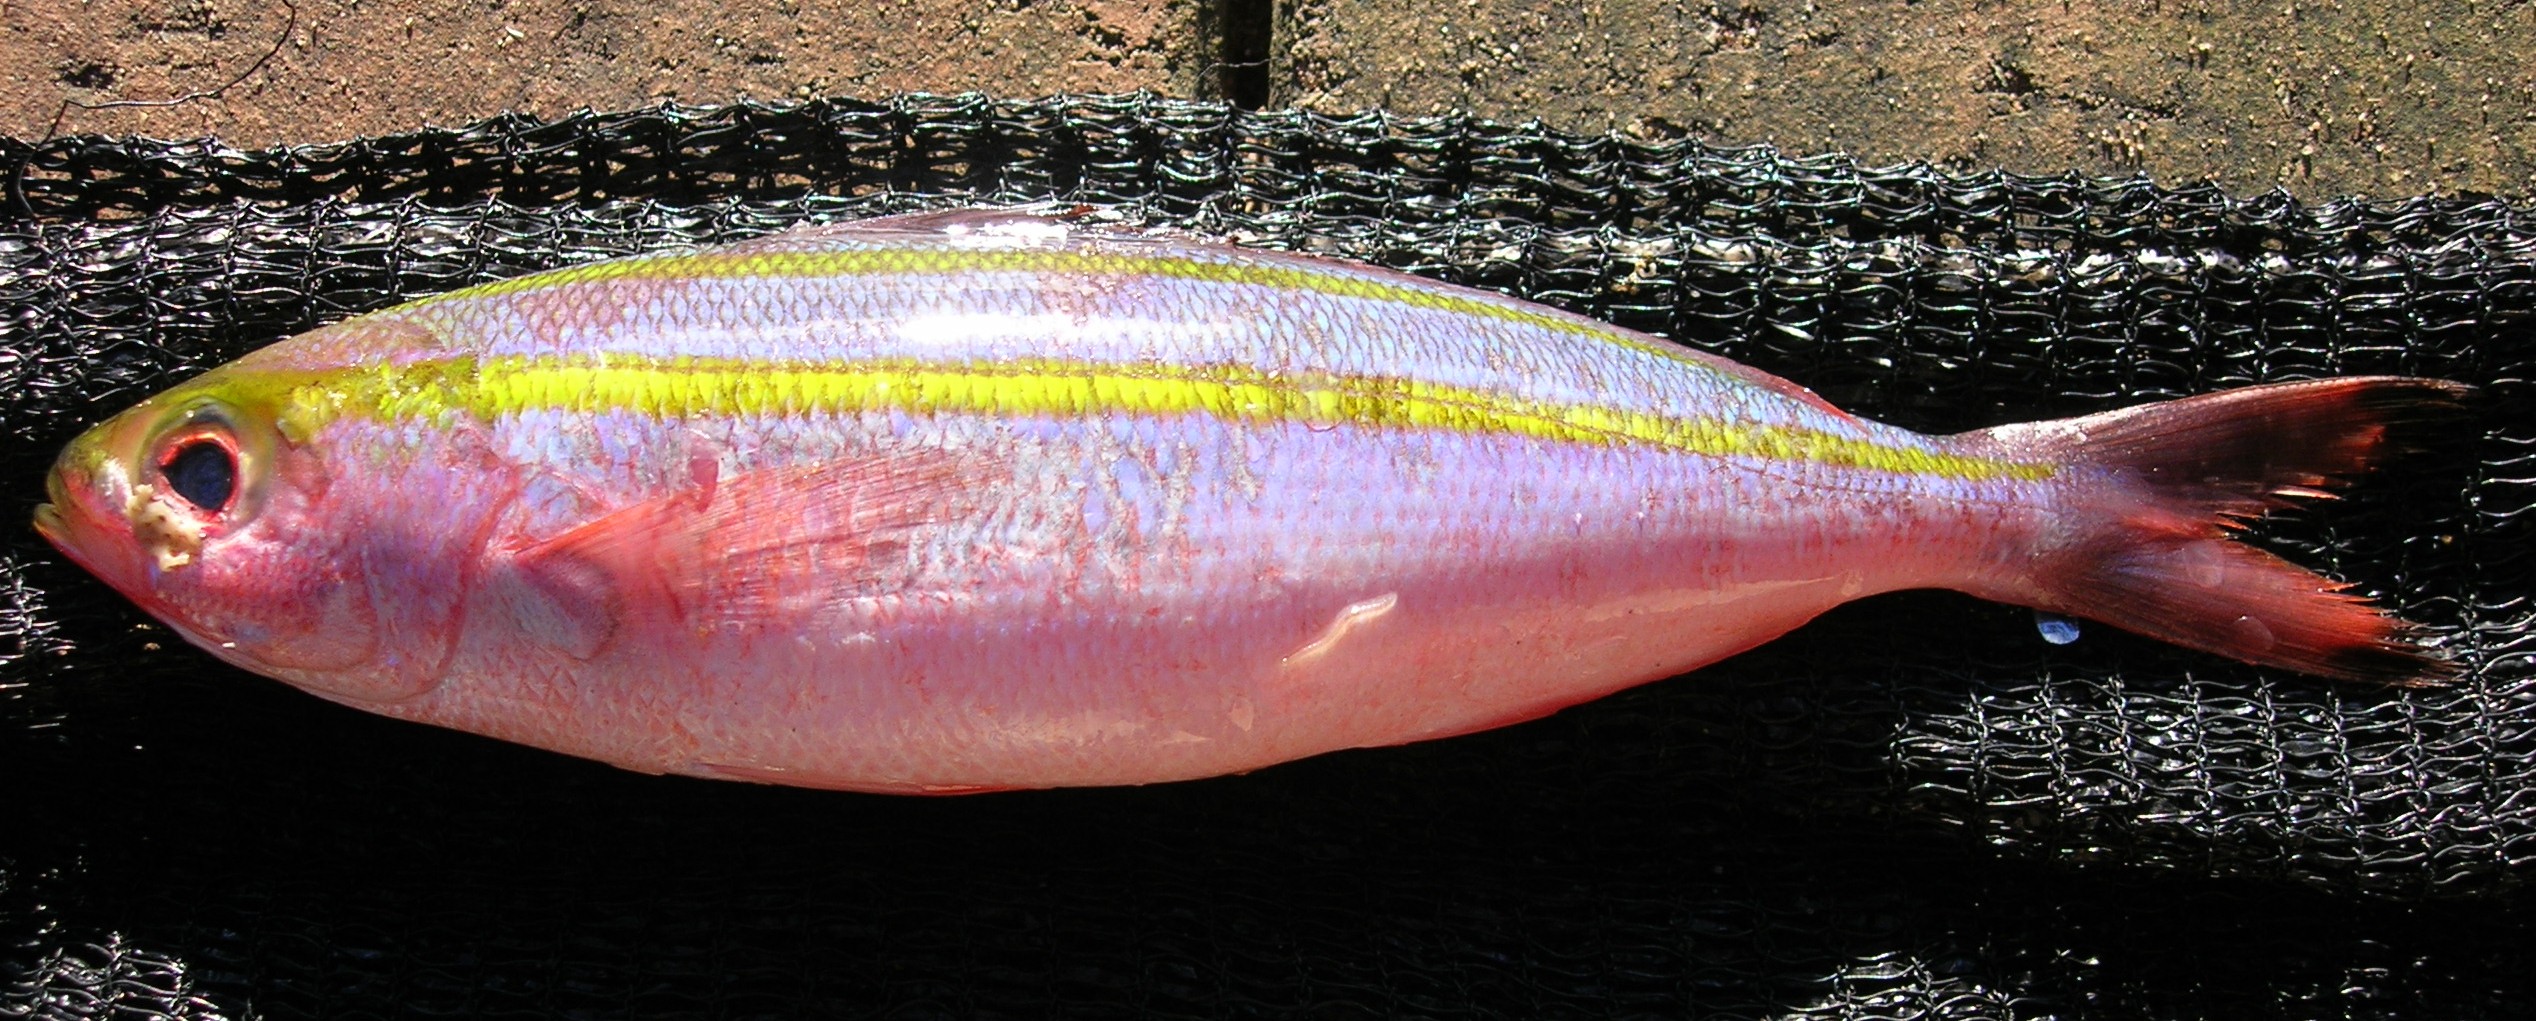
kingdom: Animalia
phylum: Chordata
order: Perciformes
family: Caesionidae
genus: Pterocaesio
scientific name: Pterocaesio marri
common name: Marr's fusilier
